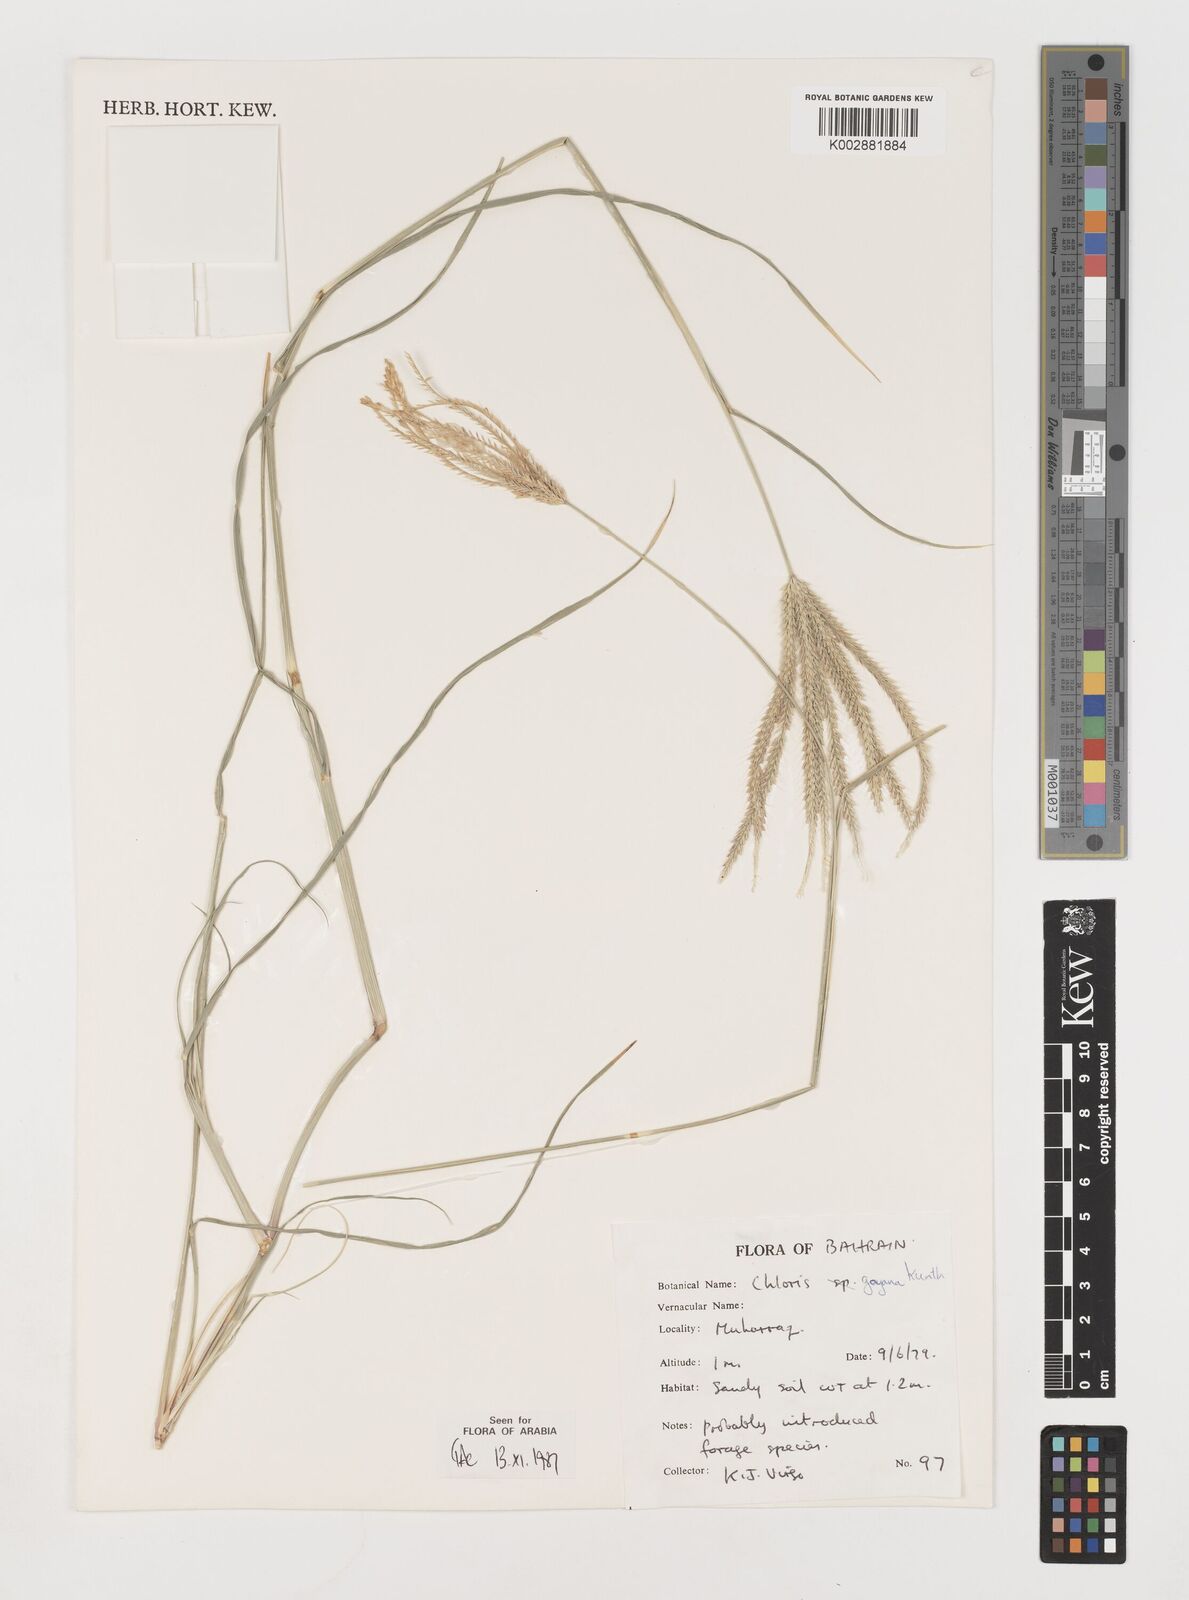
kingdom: Plantae
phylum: Tracheophyta
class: Liliopsida
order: Poales
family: Poaceae
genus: Chloris
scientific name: Chloris gayana
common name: Rhodes grass
